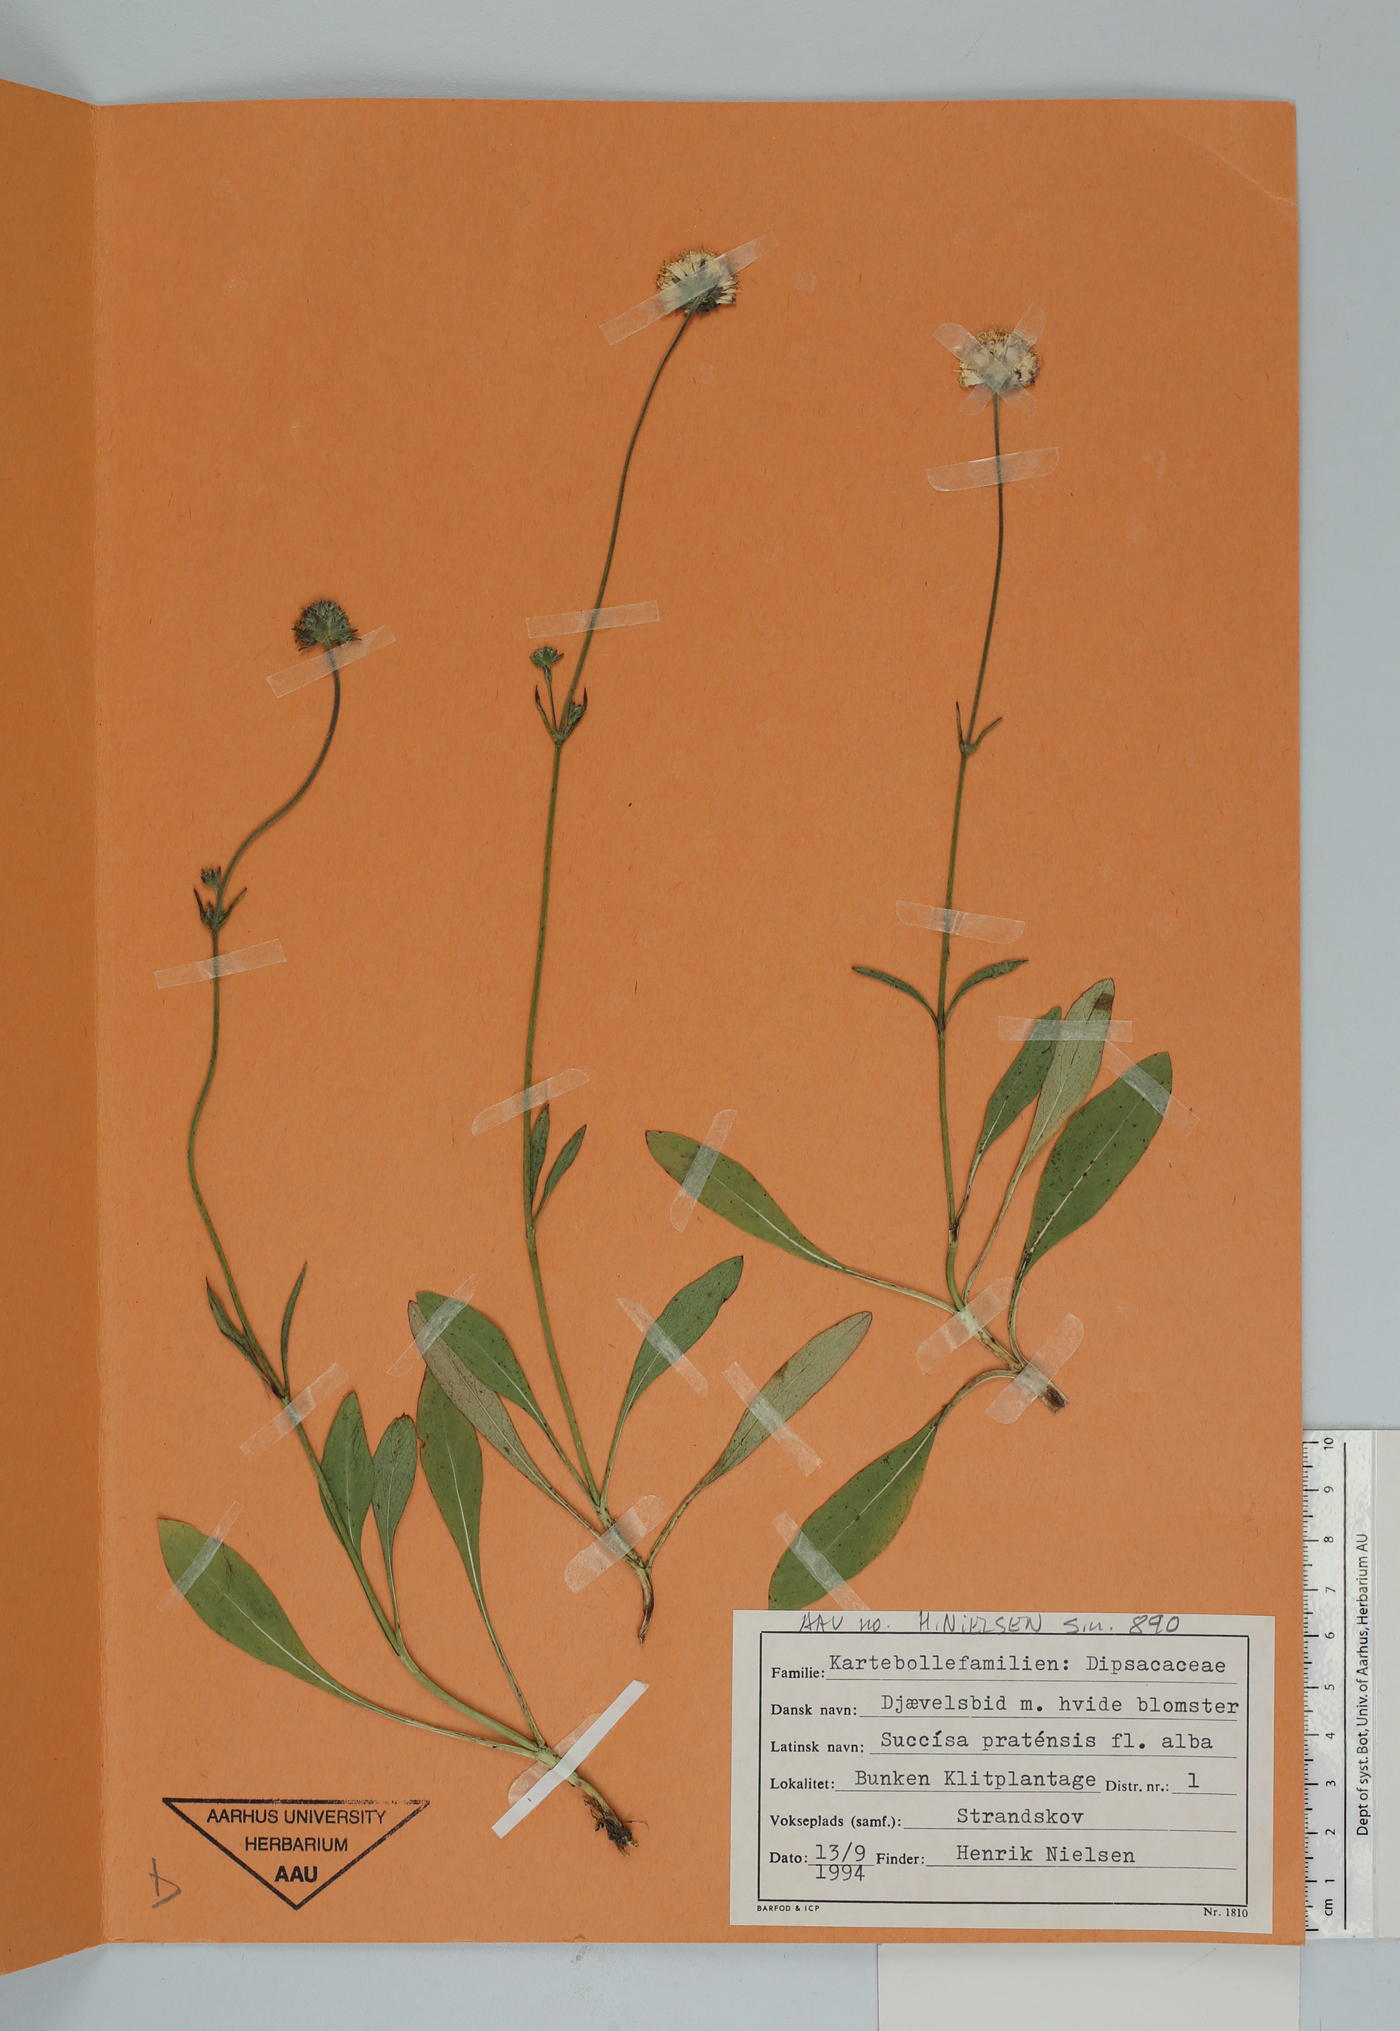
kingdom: Plantae
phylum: Tracheophyta
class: Magnoliopsida
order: Dipsacales
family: Caprifoliaceae
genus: Succisa
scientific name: Succisa pratensis
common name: Devil's-bit
